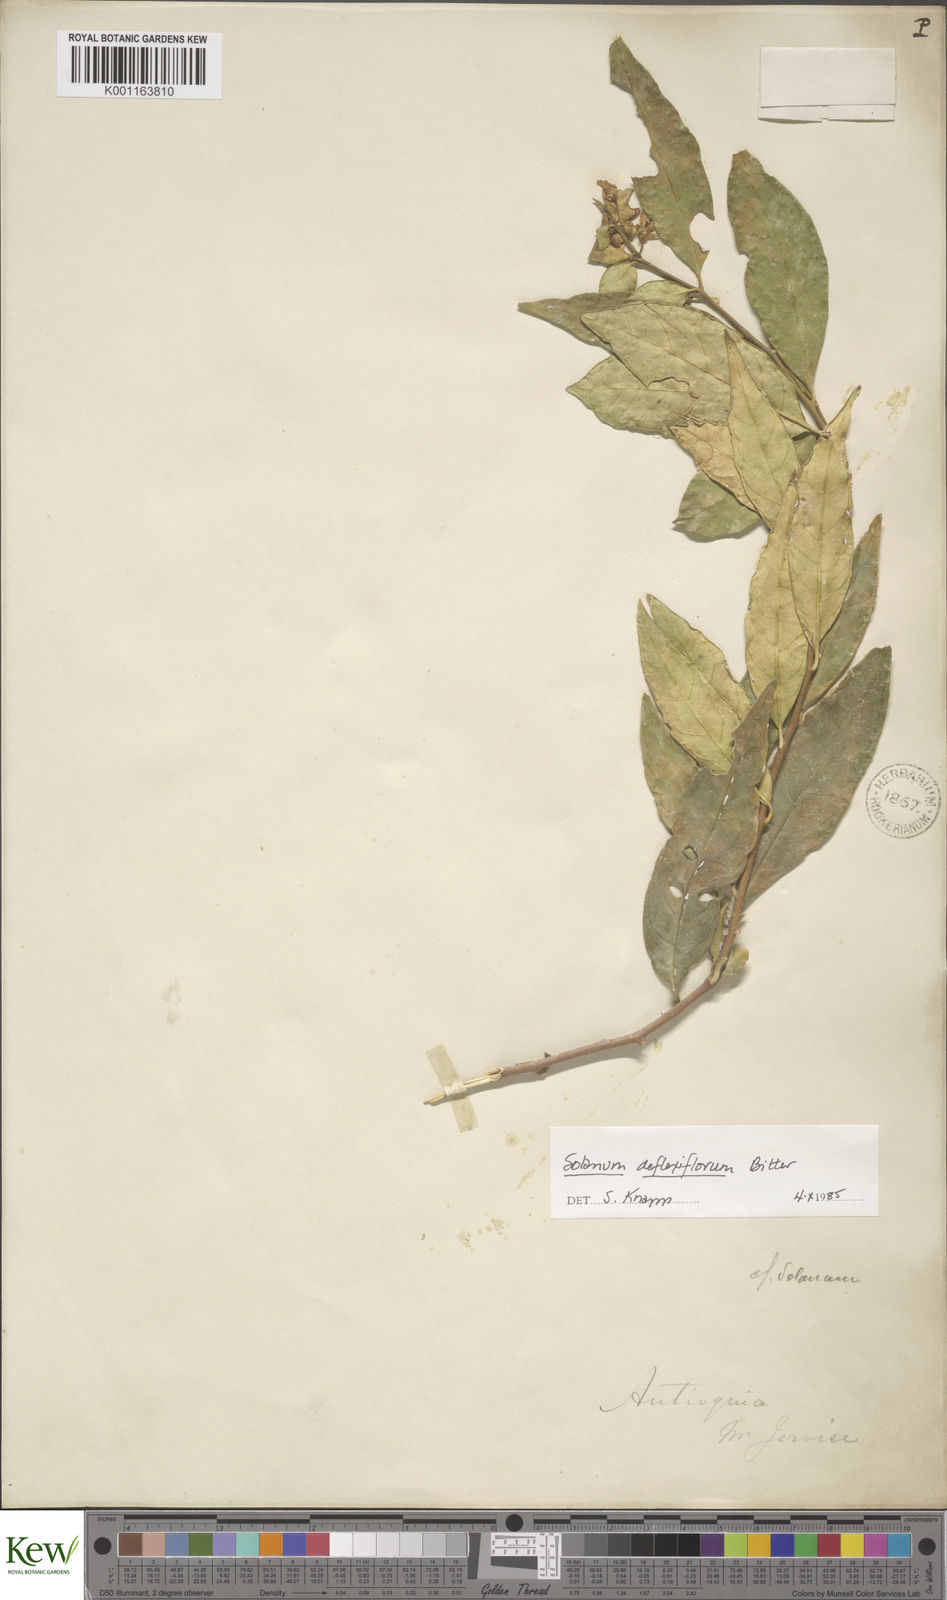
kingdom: Plantae
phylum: Tracheophyta
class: Magnoliopsida
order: Solanales
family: Solanaceae
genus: Solanum
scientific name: Solanum deflexiflorum
